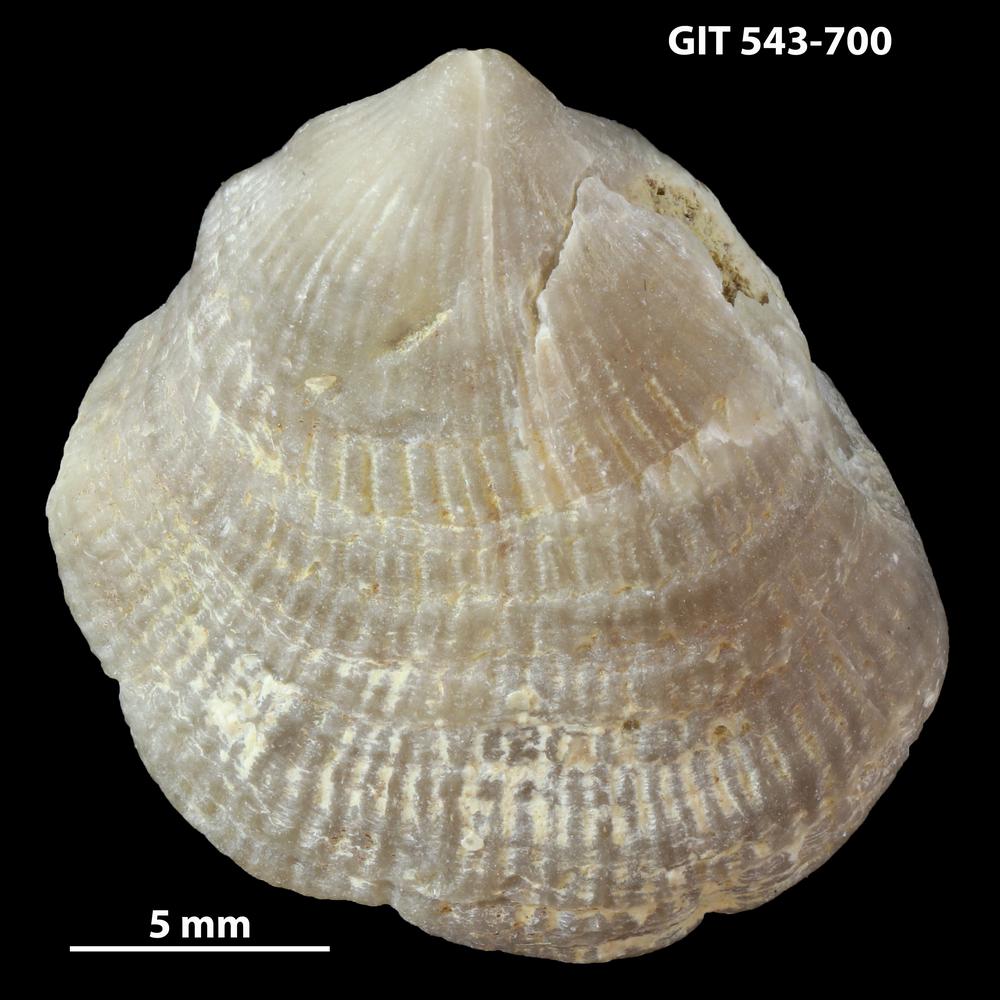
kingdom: Animalia
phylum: Brachiopoda
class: Rhynchonellata
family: Clitambonitidae
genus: Vellamo
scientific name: Vellamo oandoensis
